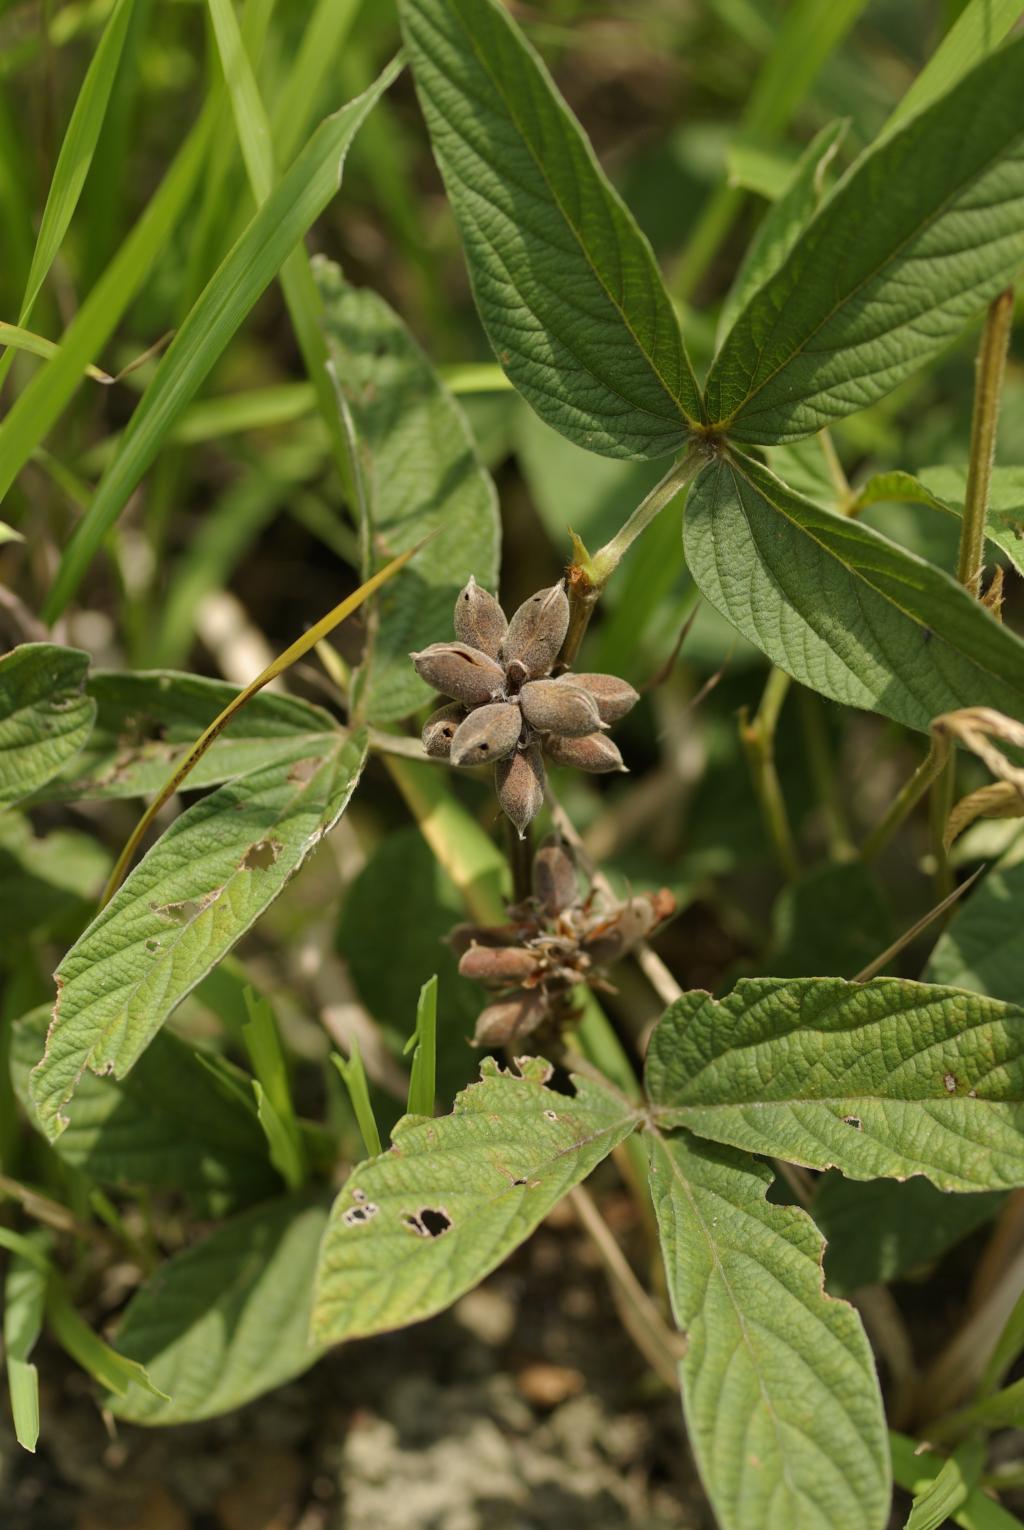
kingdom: Plantae
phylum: Tracheophyta
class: Magnoliopsida
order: Fabales
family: Fabaceae
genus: Flemingia
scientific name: Flemingia macrophylla
